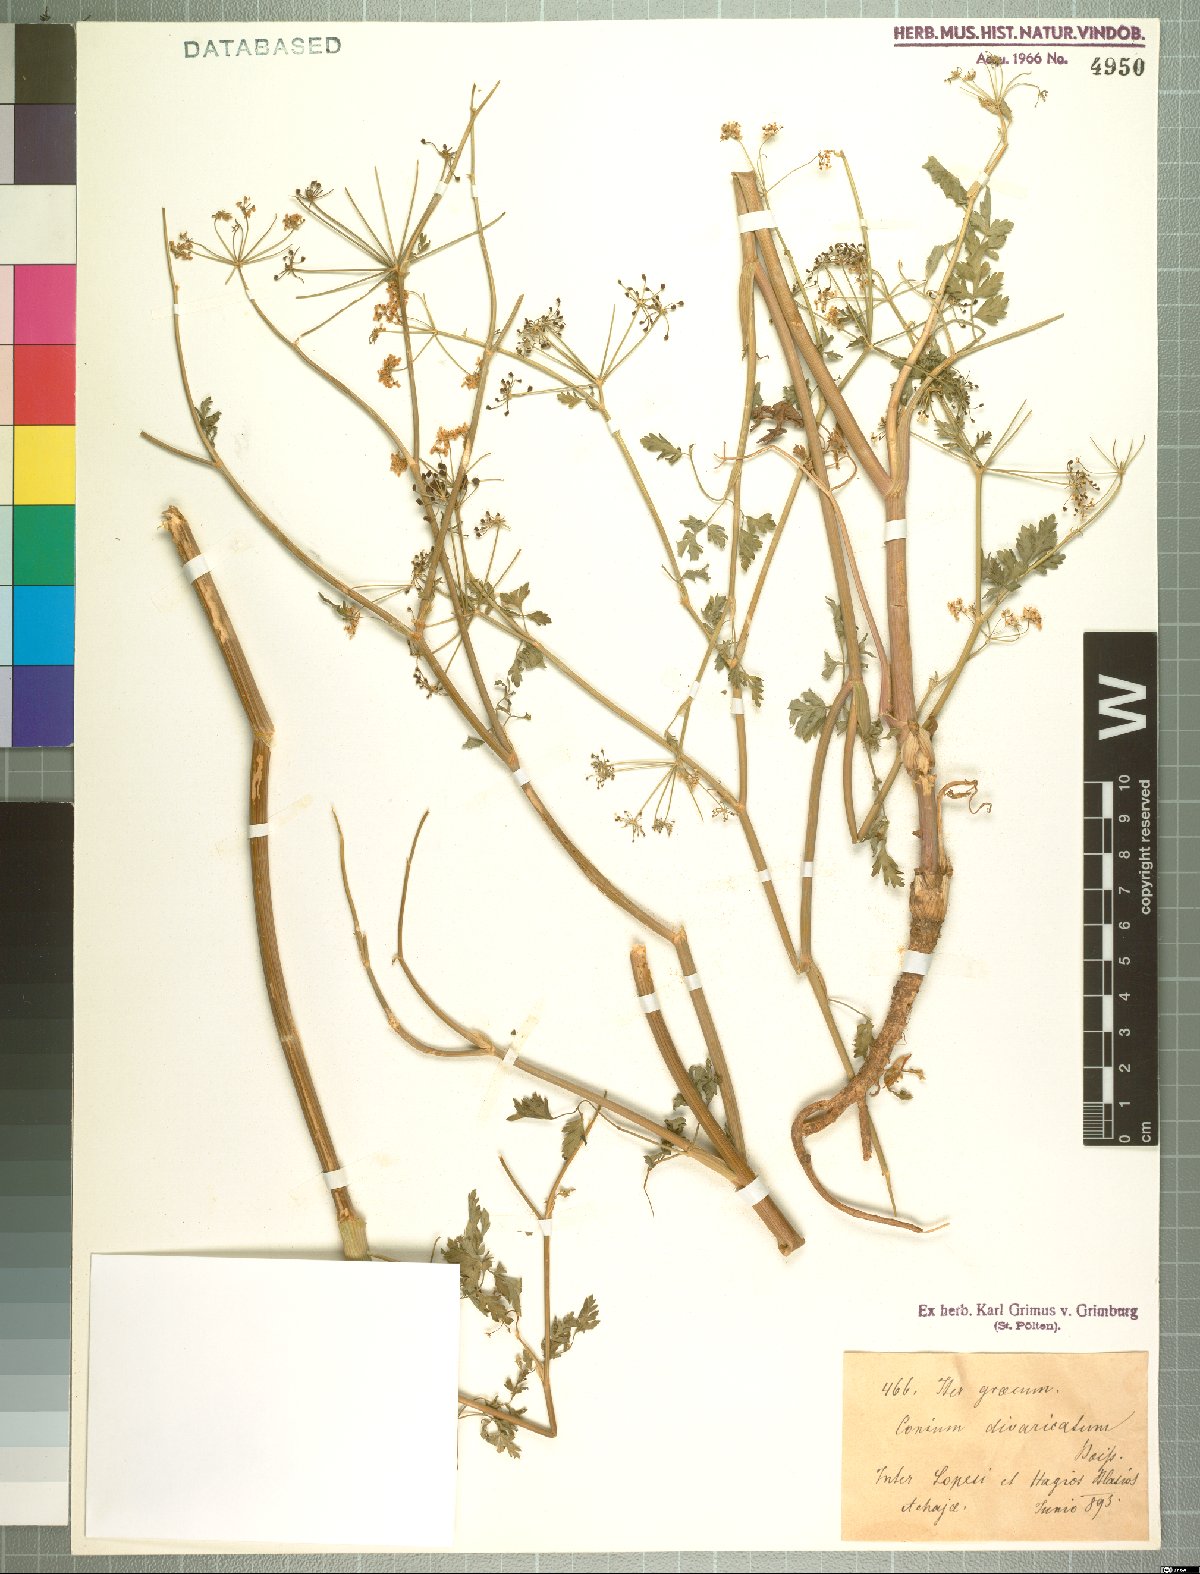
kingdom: Plantae
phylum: Tracheophyta
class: Magnoliopsida
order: Apiales
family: Apiaceae
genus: Conium
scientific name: Conium divaricatum
